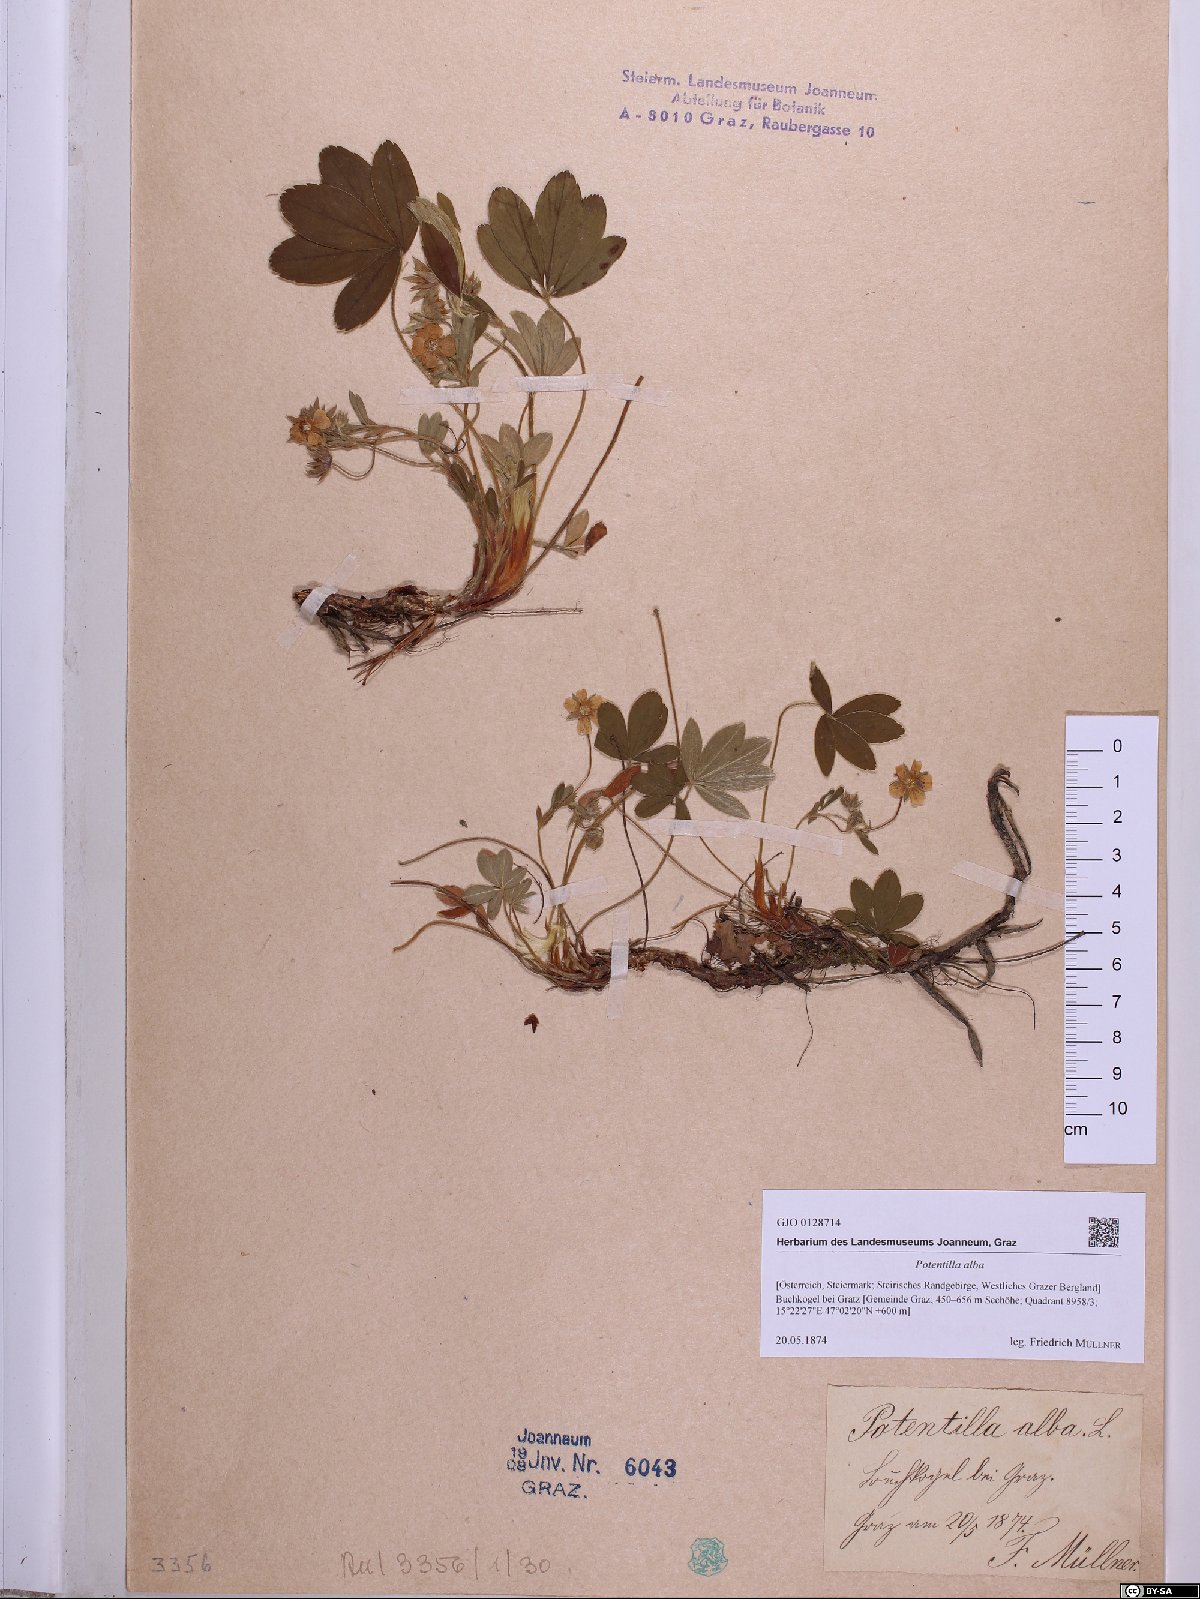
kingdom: Plantae
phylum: Tracheophyta
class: Magnoliopsida
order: Rosales
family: Rosaceae
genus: Potentilla
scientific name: Potentilla alba
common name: White cinquefoil
